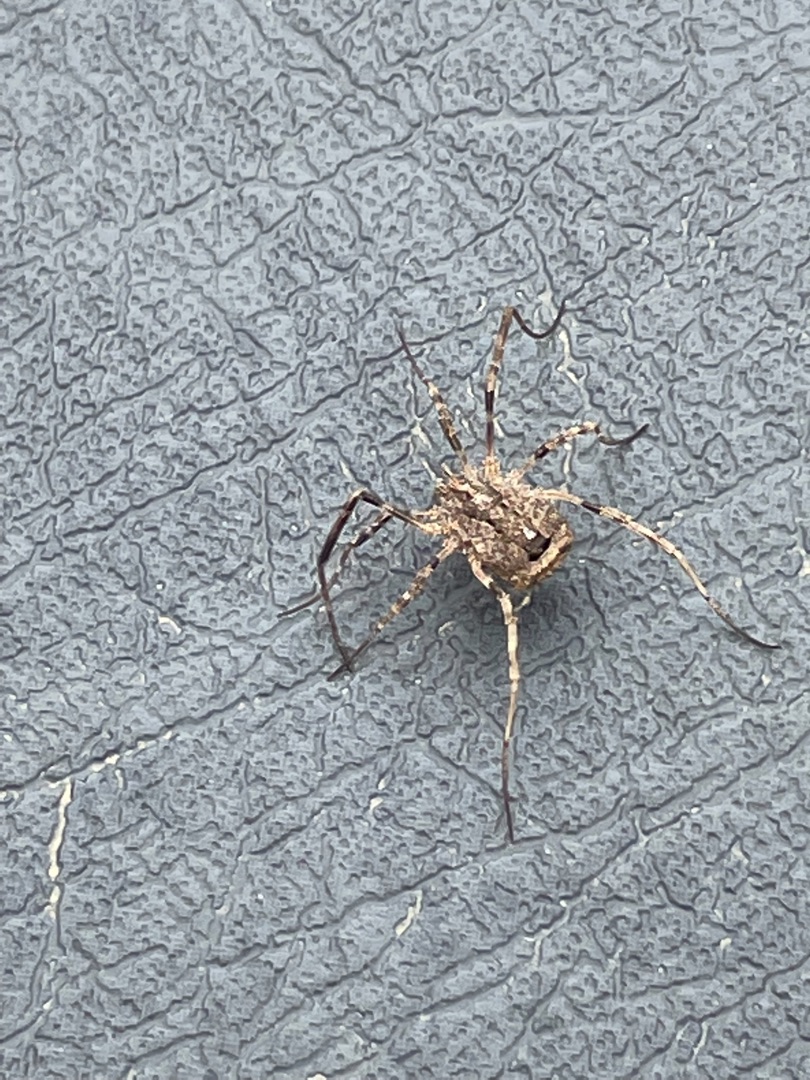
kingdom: Animalia
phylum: Arthropoda
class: Arachnida
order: Opiliones
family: Phalangiidae
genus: Odiellus
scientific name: Odiellus spinosus
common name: Kæmpemejer
